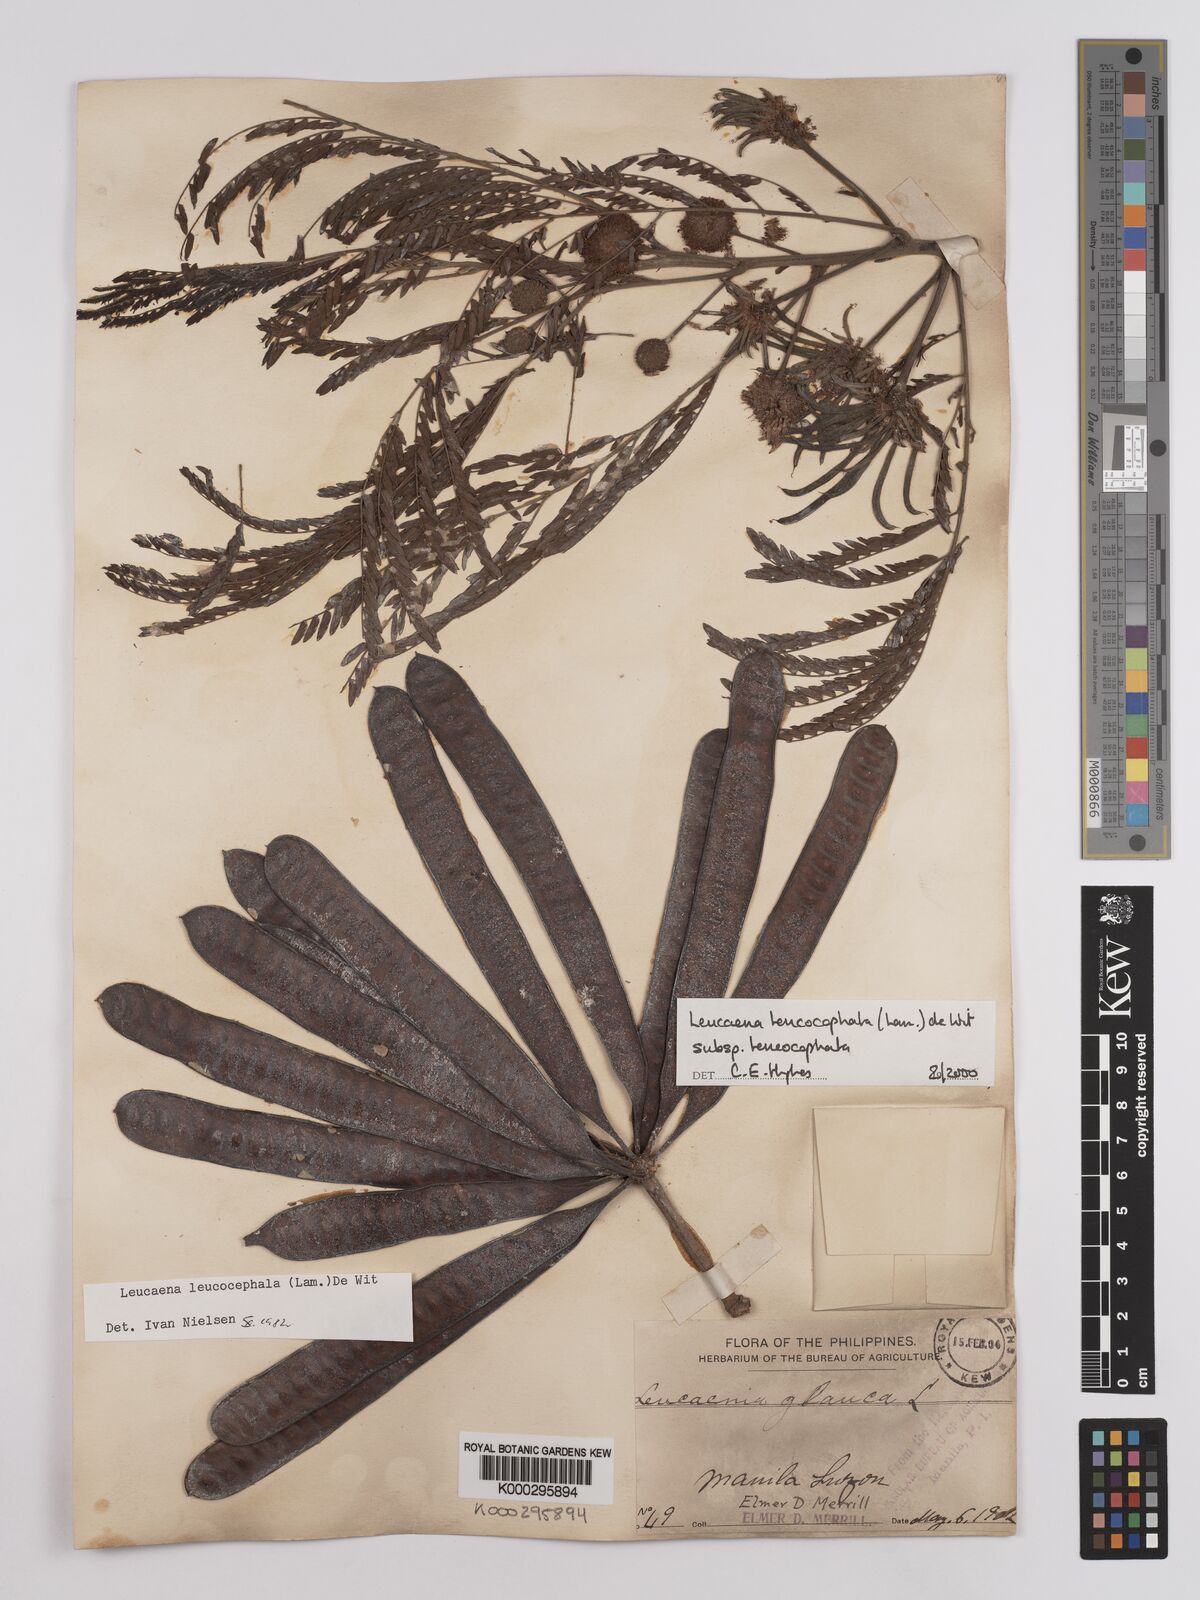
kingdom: Plantae
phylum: Tracheophyta
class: Magnoliopsida
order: Fabales
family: Fabaceae
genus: Leucaena
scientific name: Leucaena leucocephala
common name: White leadtree
